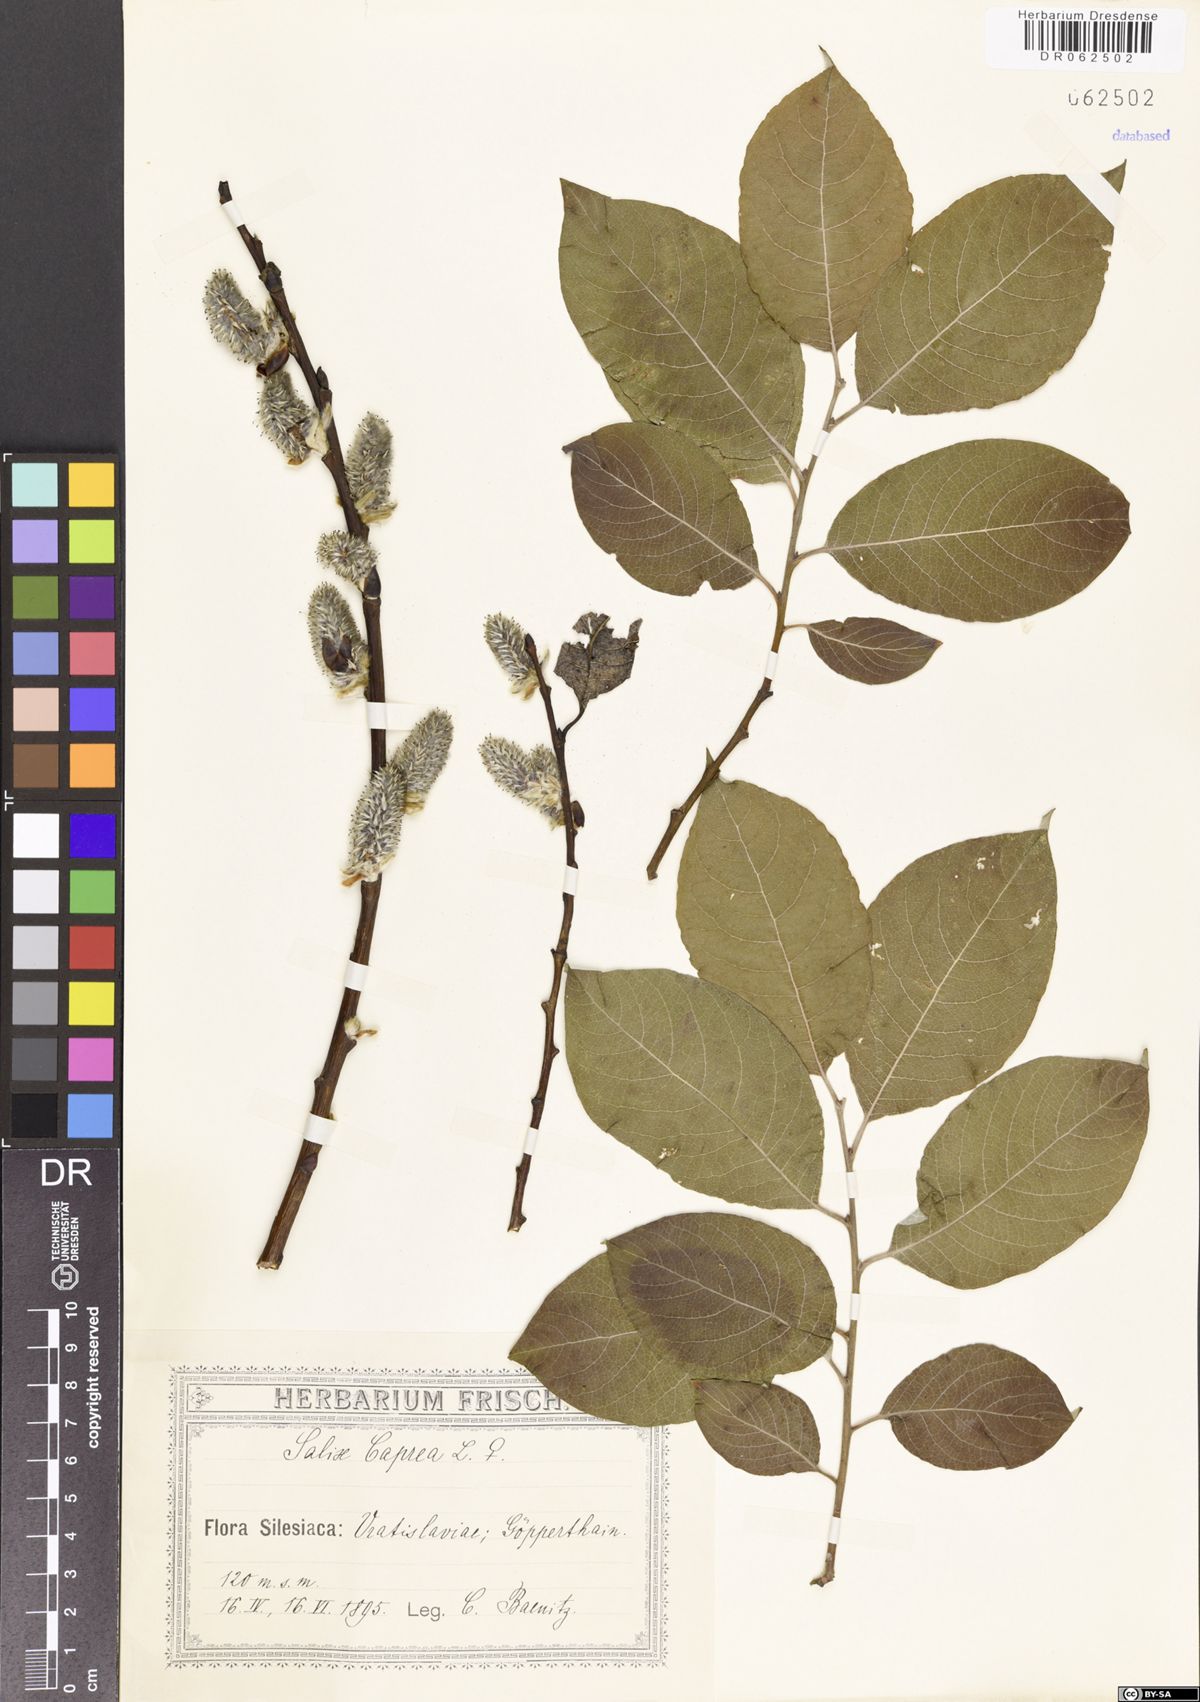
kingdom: Plantae
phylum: Tracheophyta
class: Magnoliopsida
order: Malpighiales
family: Salicaceae
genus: Salix
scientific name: Salix caprea
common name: Goat willow
